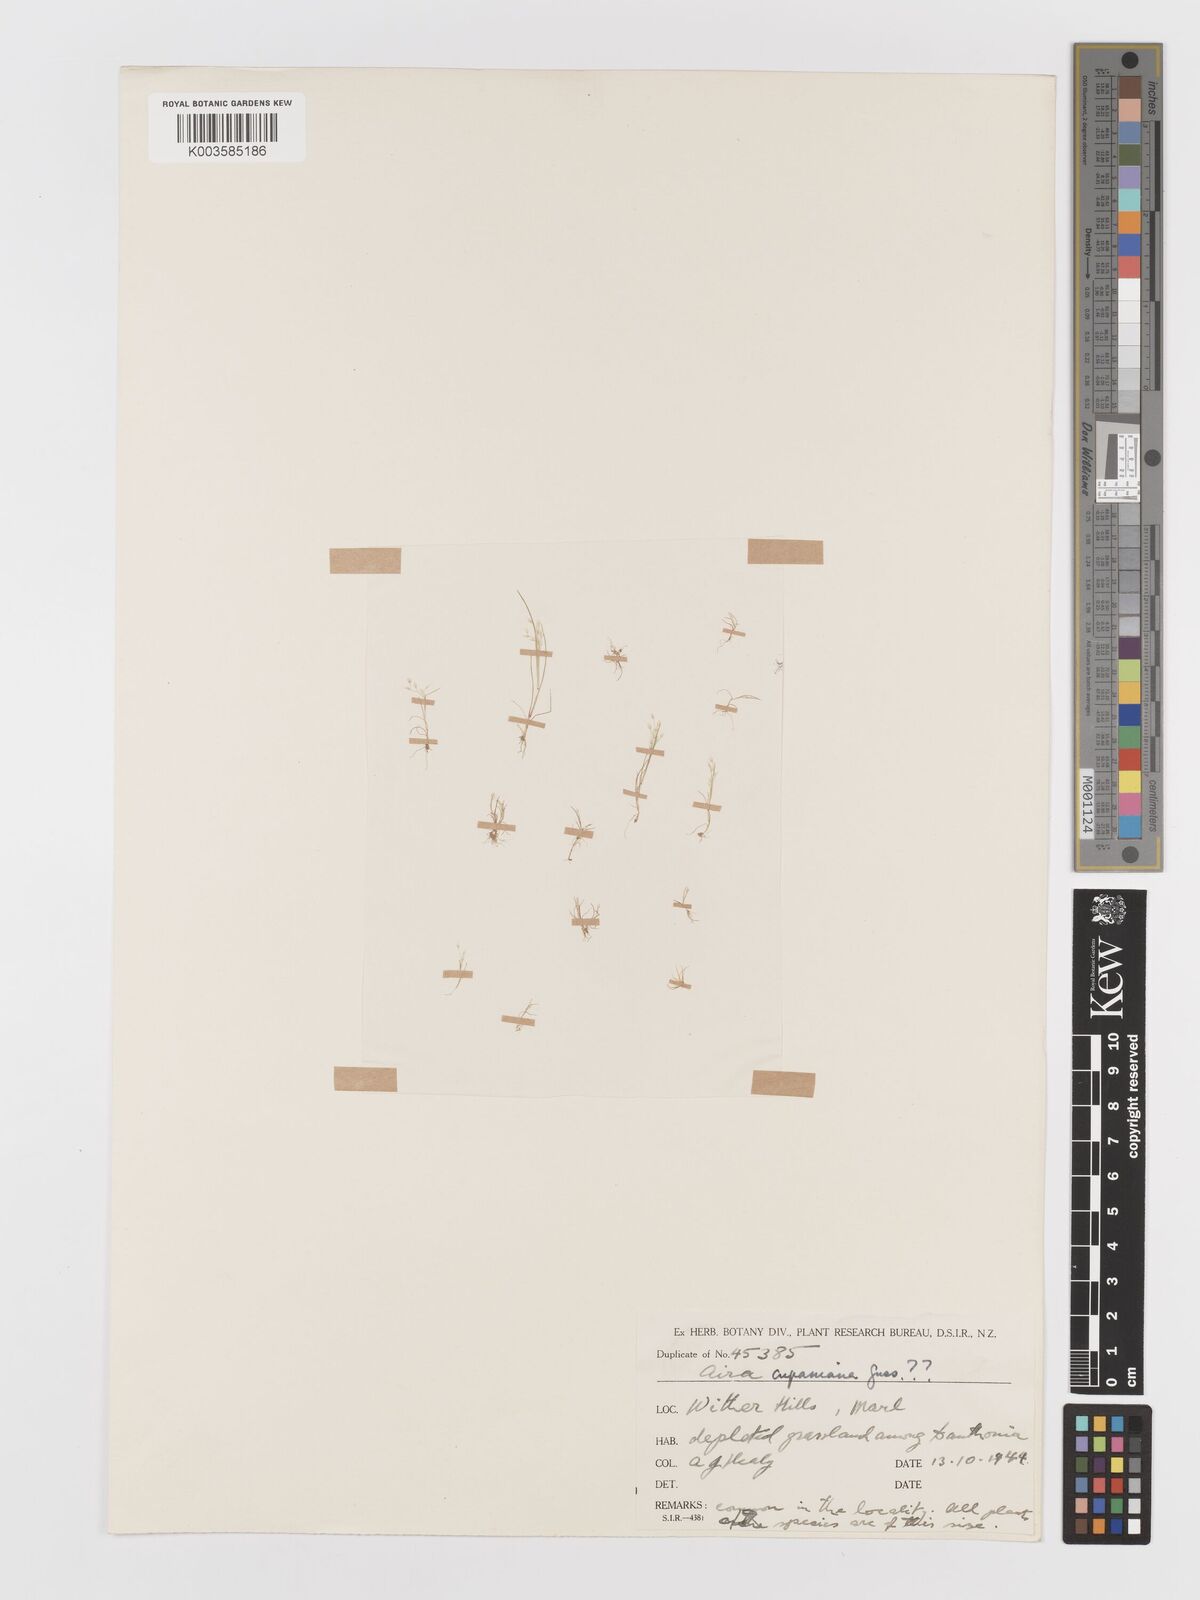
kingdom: Plantae
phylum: Tracheophyta
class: Liliopsida
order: Poales
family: Poaceae
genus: Aira
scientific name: Aira cupaniana
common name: Silver hairgrass
